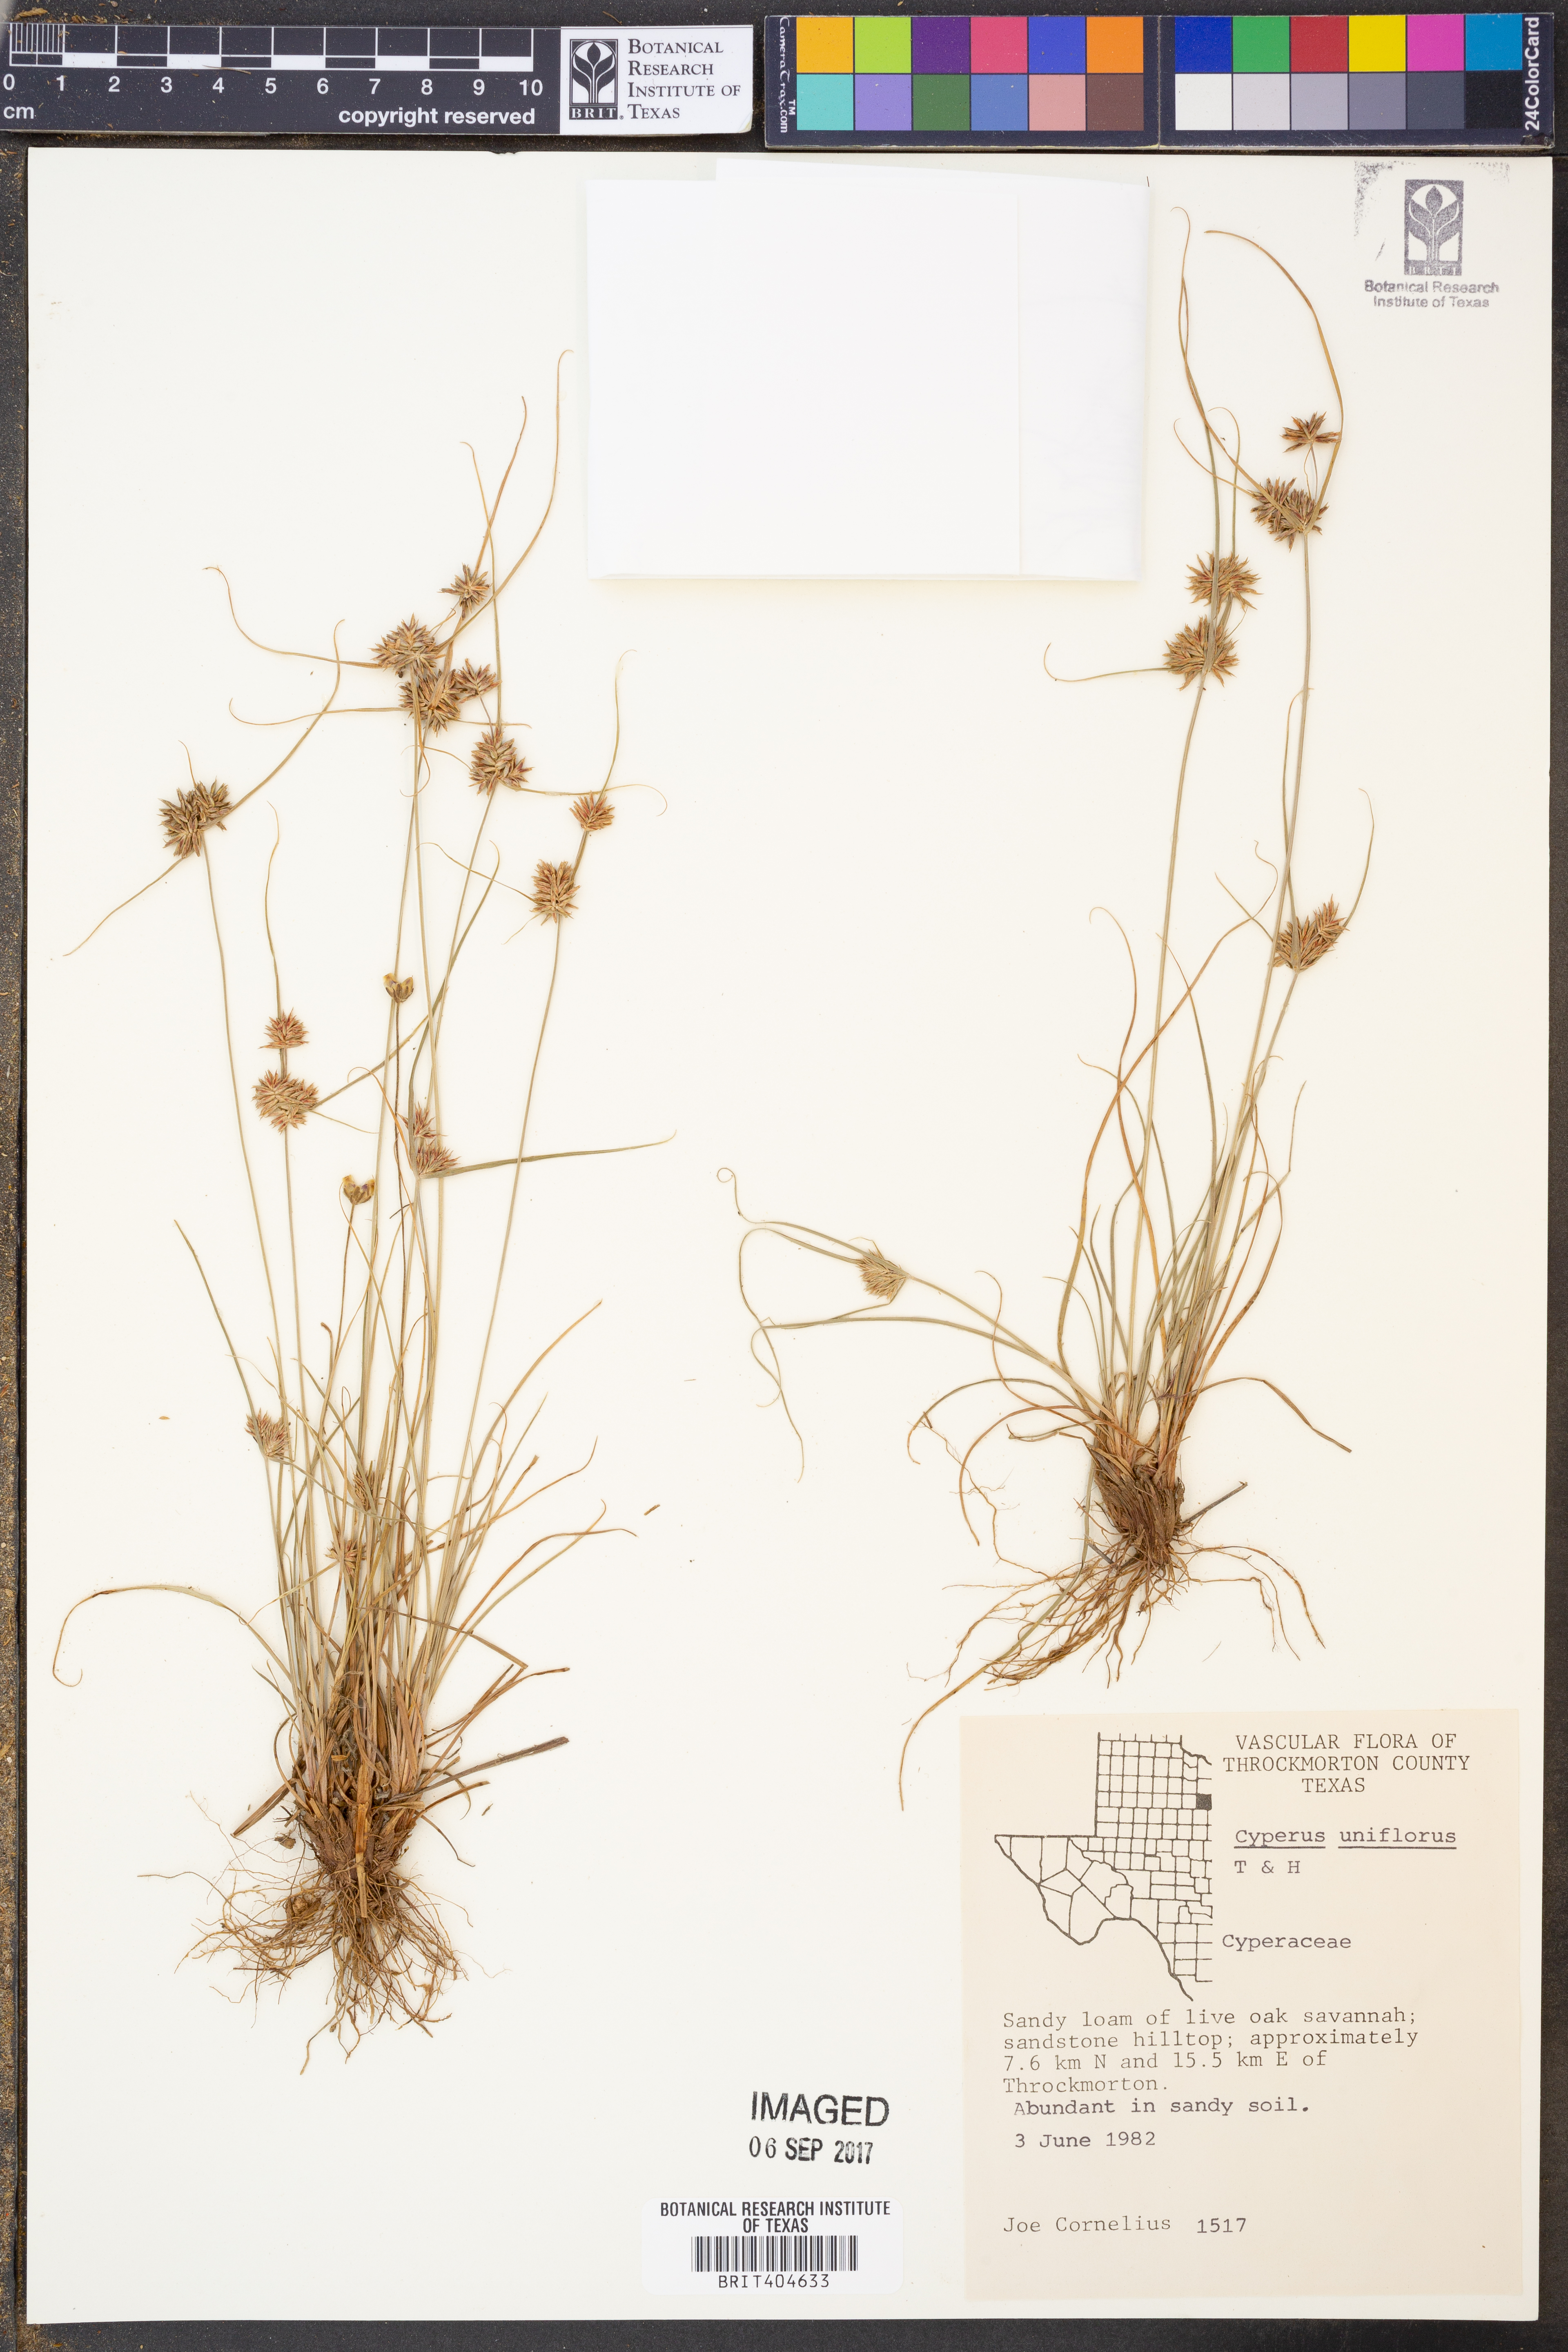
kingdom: Plantae
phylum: Tracheophyta
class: Liliopsida
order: Poales
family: Cyperaceae
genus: Cyperus
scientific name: Cyperus retroflexus
